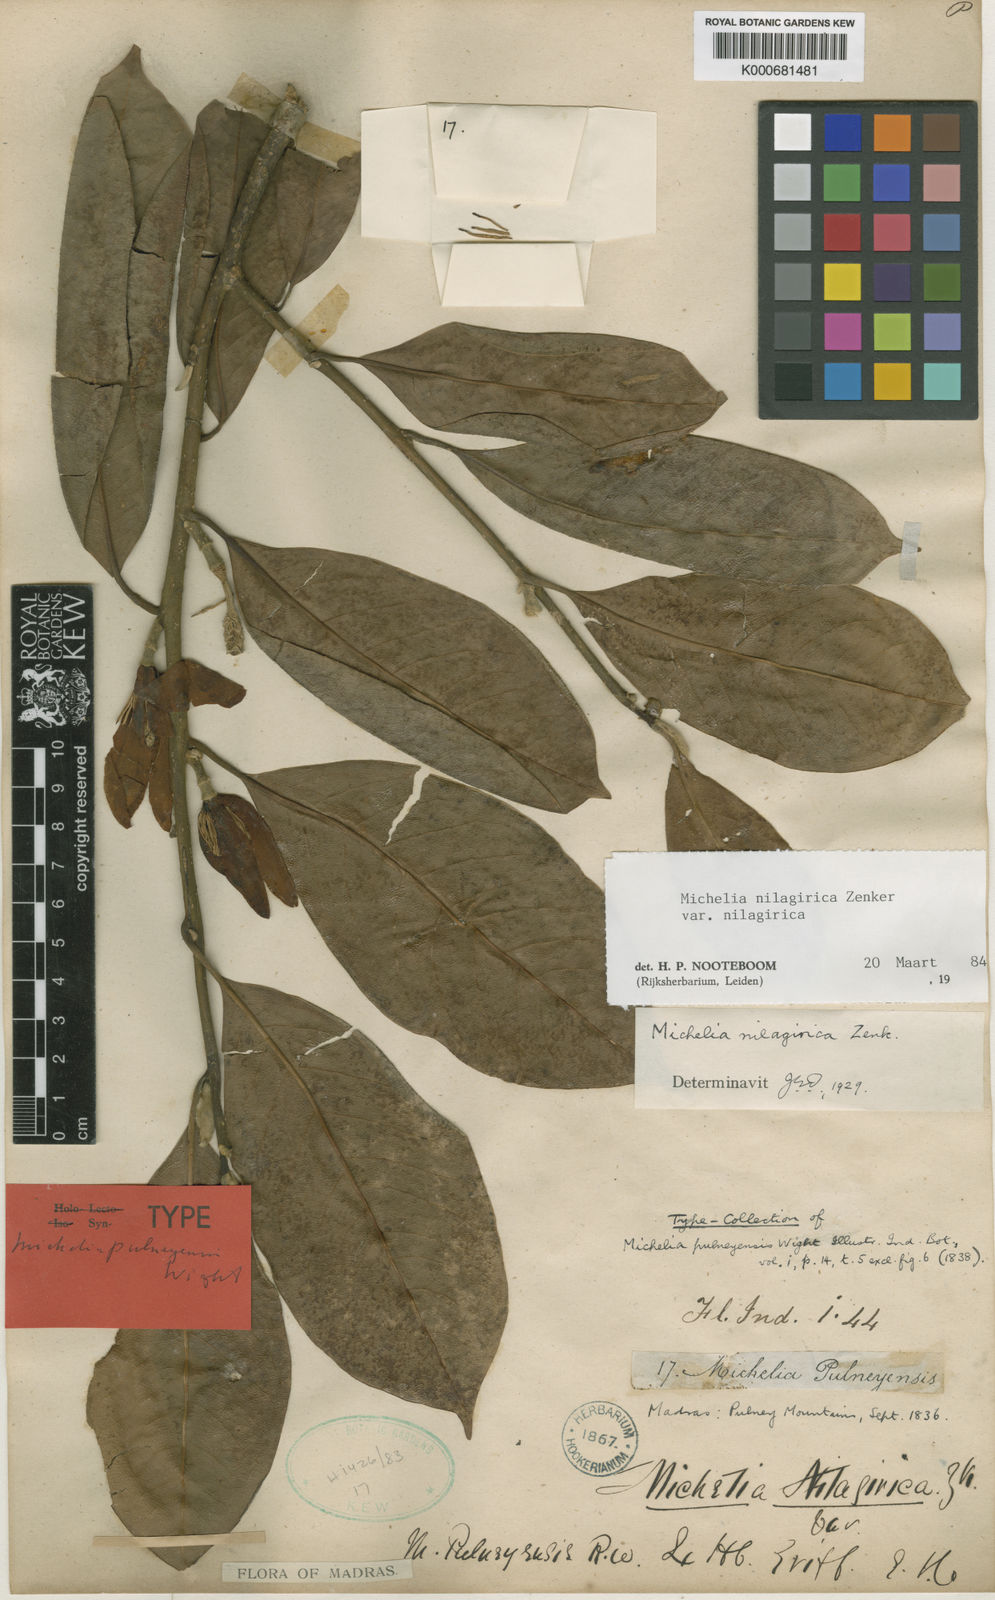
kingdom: Plantae
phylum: Tracheophyta
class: Magnoliopsida
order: Magnoliales
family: Magnoliaceae
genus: Magnolia
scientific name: Magnolia nilagirica
